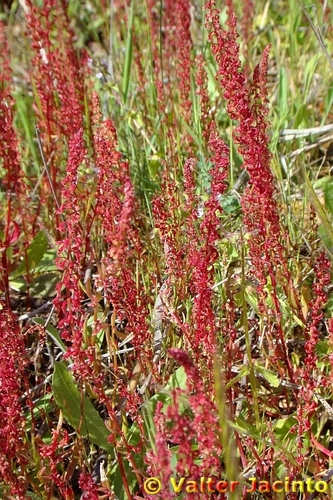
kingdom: Plantae
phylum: Tracheophyta
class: Magnoliopsida
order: Caryophyllales
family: Polygonaceae
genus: Rumex
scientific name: Rumex bucephalophorus
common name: Red dock
